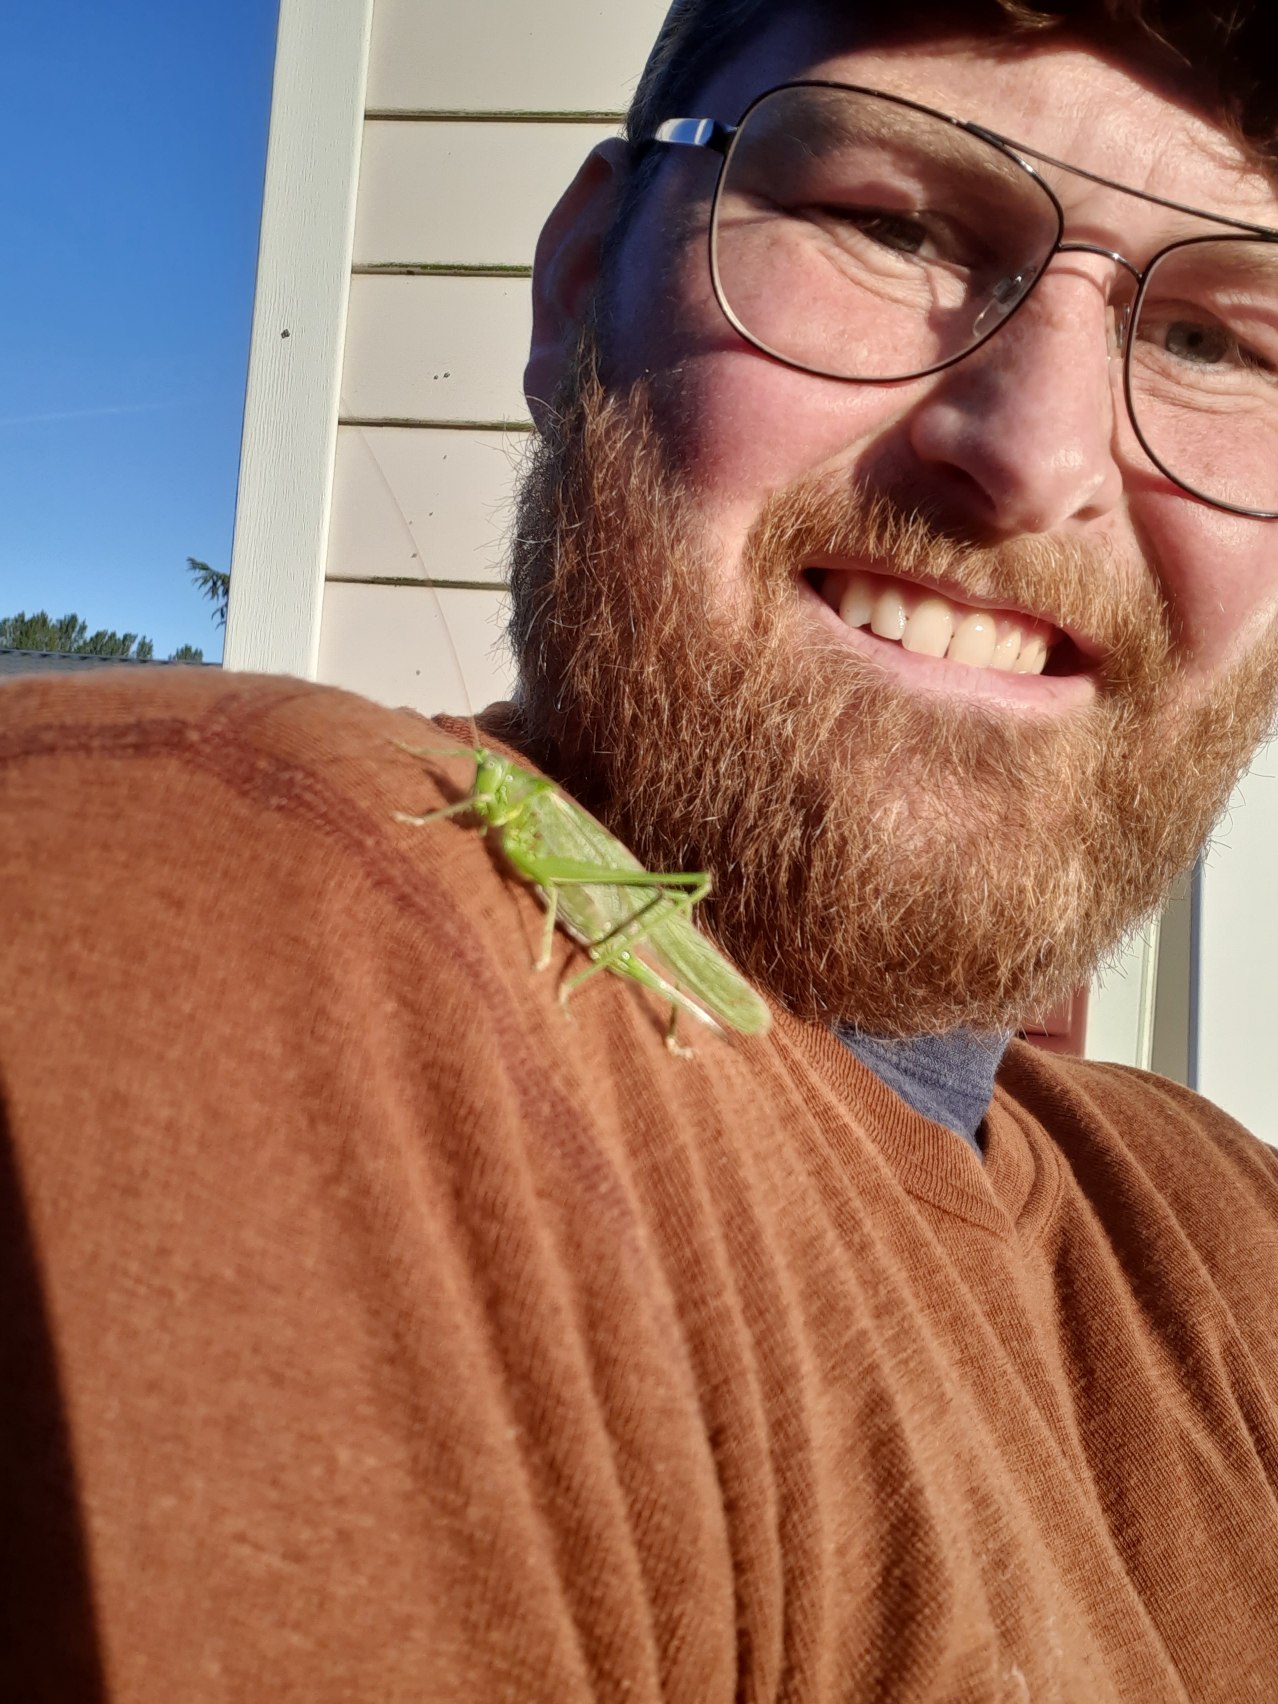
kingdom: Animalia
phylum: Arthropoda
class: Insecta
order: Orthoptera
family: Tettigoniidae
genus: Tettigonia
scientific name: Tettigonia viridissima
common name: Stor grøn løvgræshoppe
